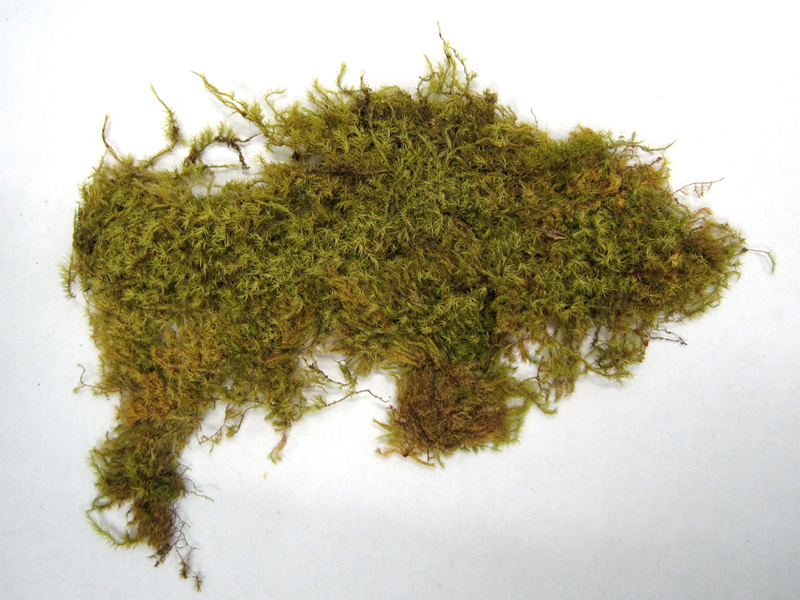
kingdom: Plantae
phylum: Bryophyta
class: Bryopsida
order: Hypnales
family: Sematophyllaceae
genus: Acroporium
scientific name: Acroporium convolutum
